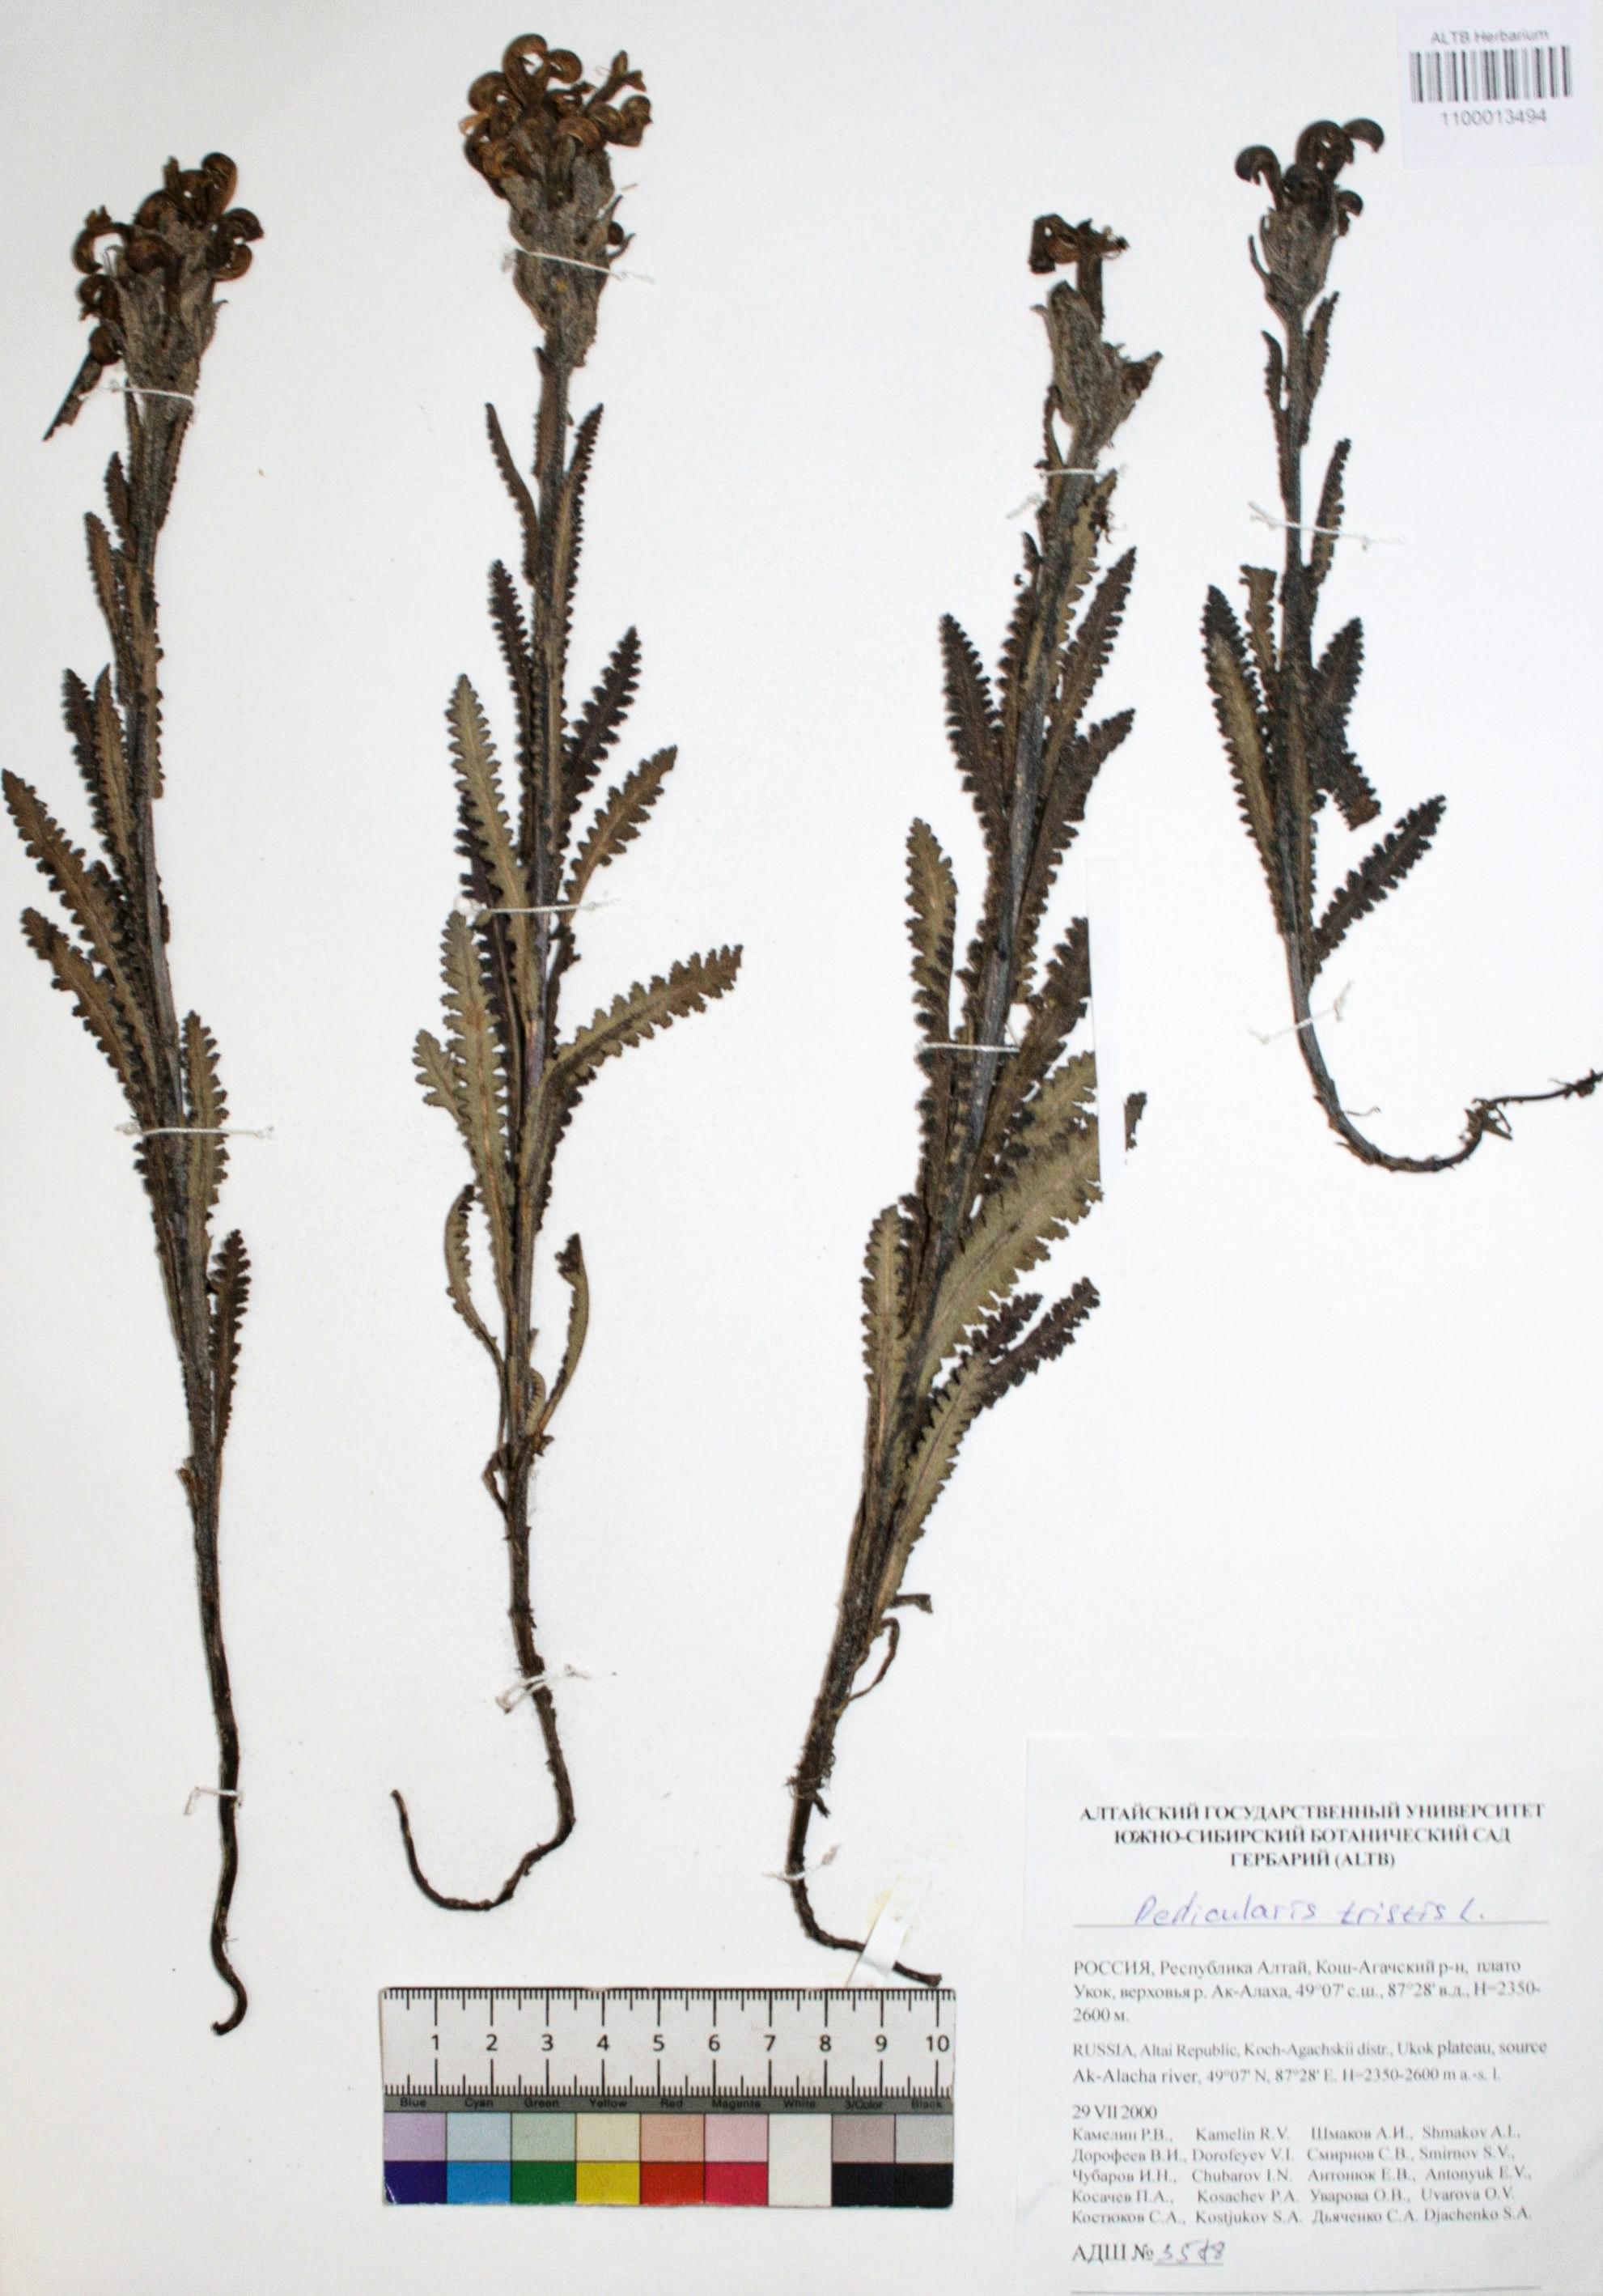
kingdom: Plantae
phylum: Tracheophyta
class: Magnoliopsida
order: Lamiales
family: Orobanchaceae
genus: Pedicularis
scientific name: Pedicularis tristis
